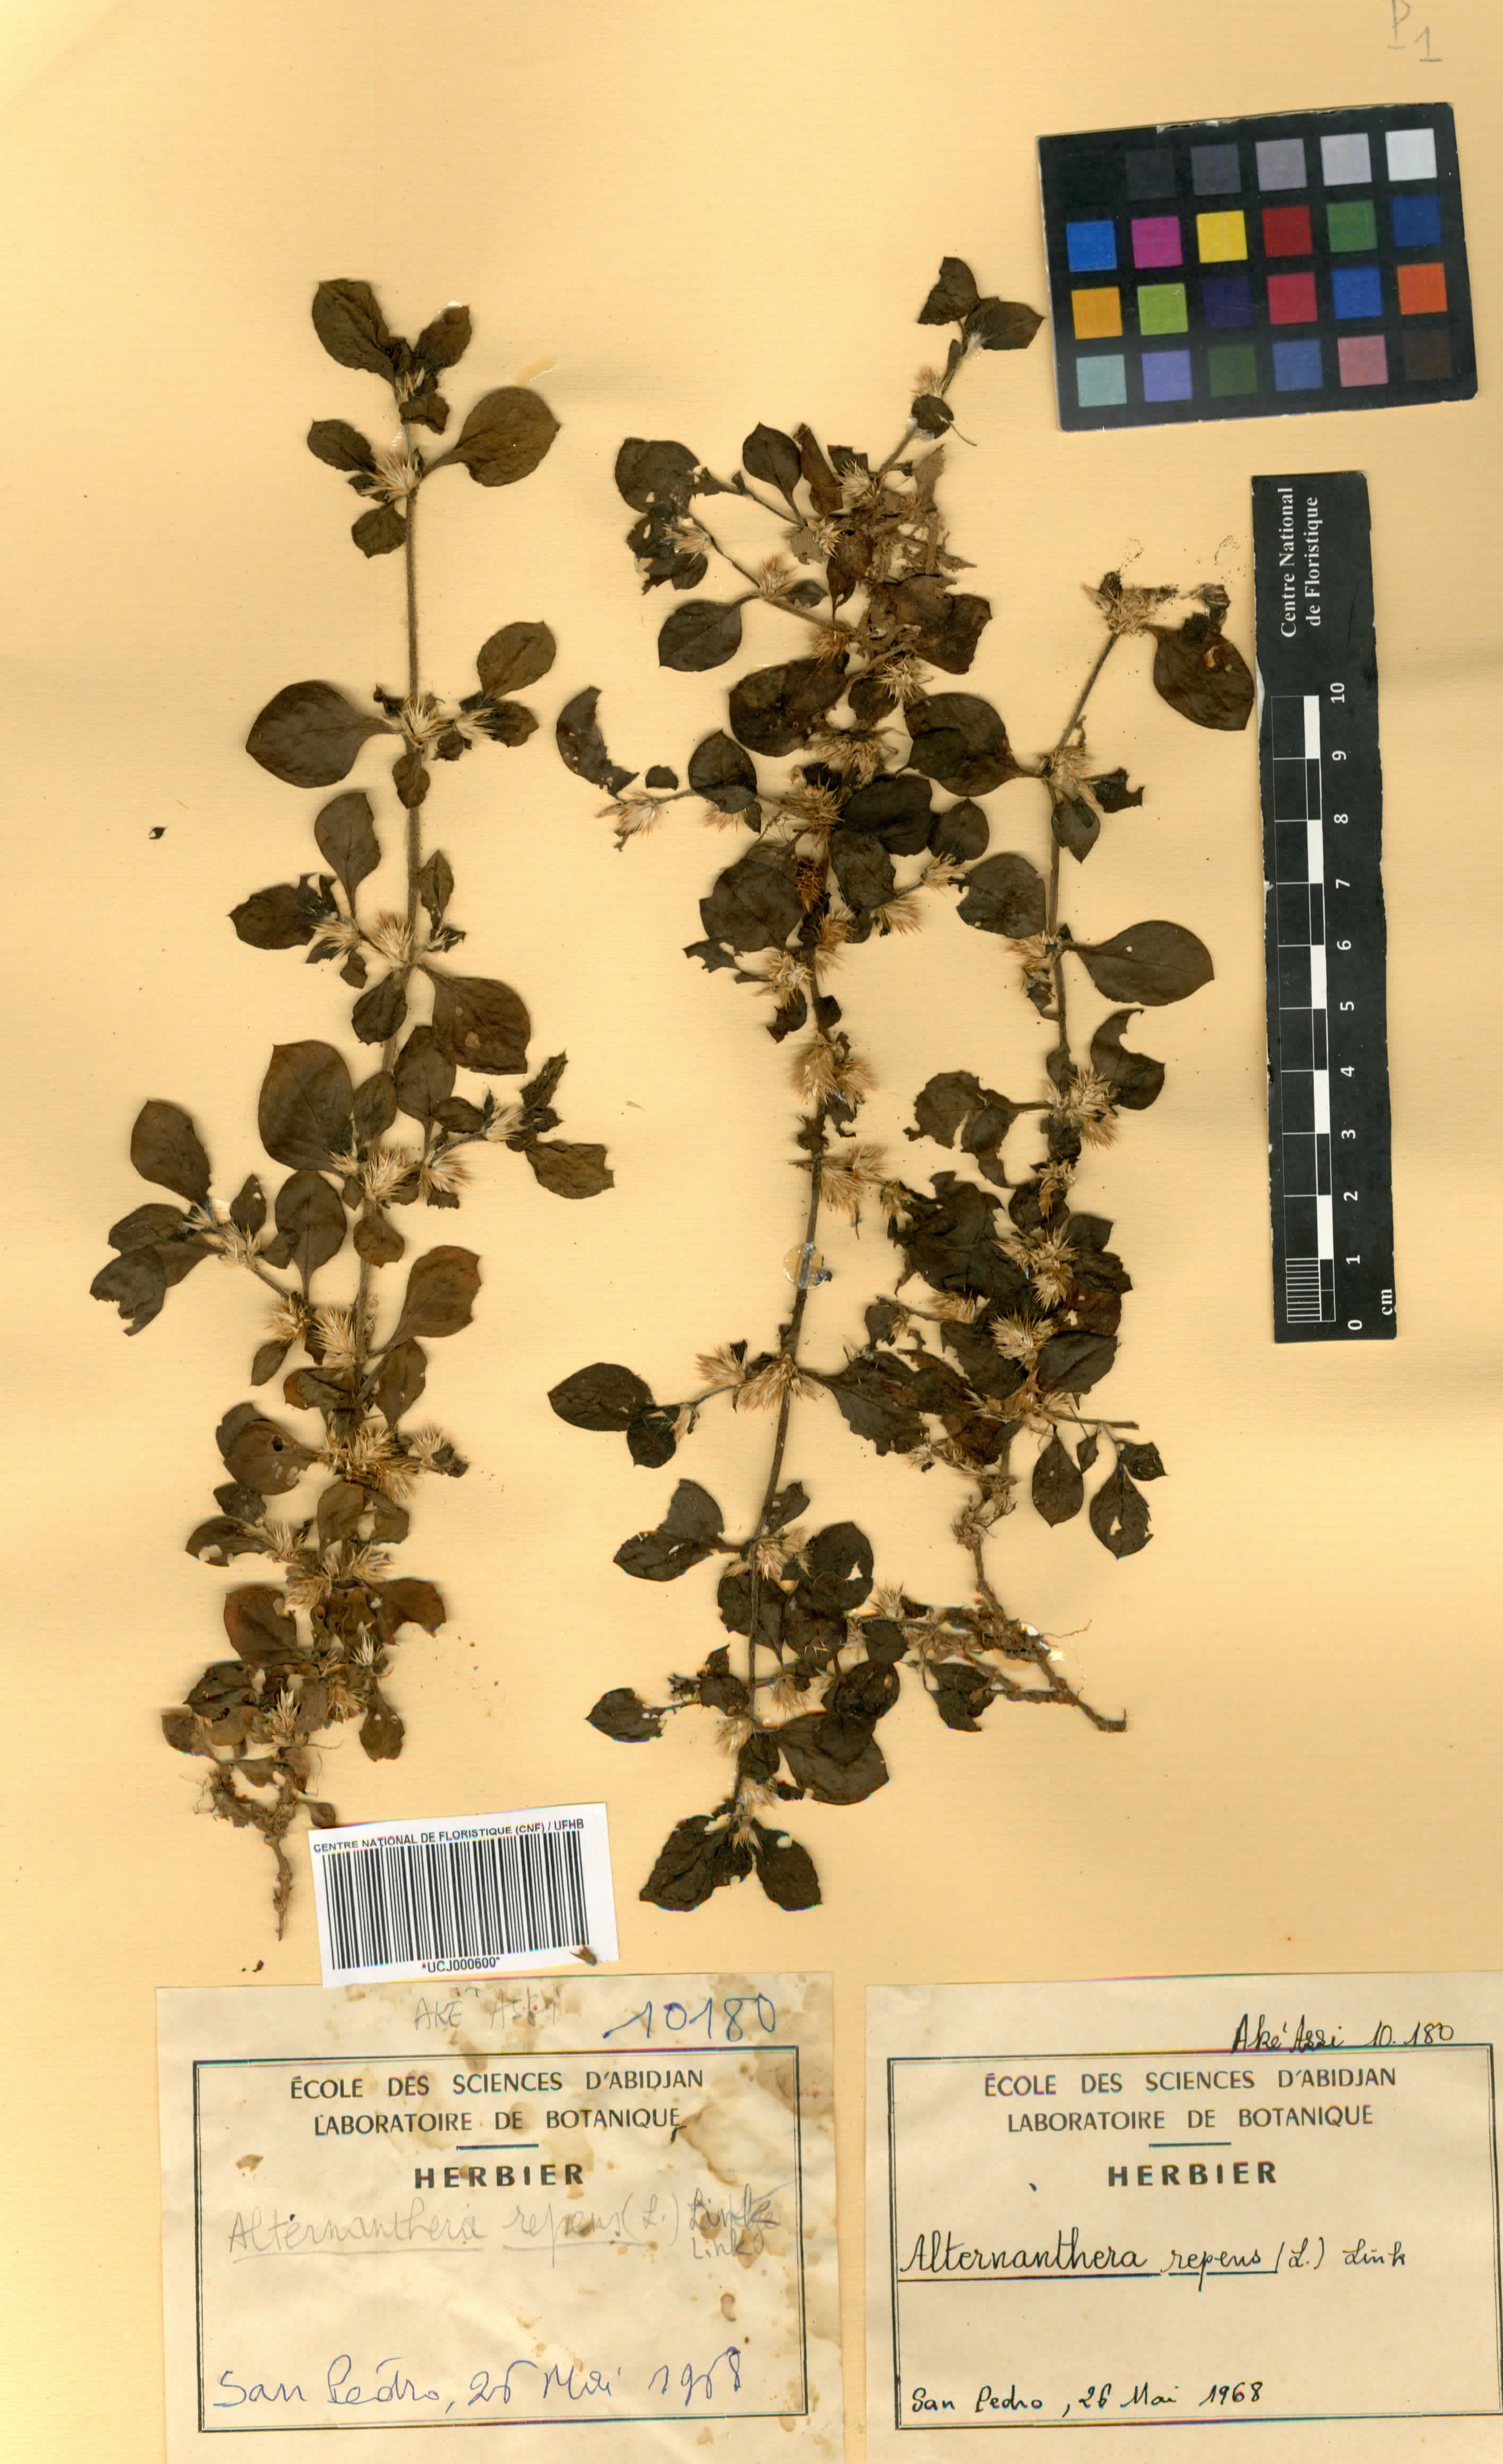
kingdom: Plantae
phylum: Tracheophyta
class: Magnoliopsida
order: Caryophyllales
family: Amaranthaceae
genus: Alternanthera
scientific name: Alternanthera
